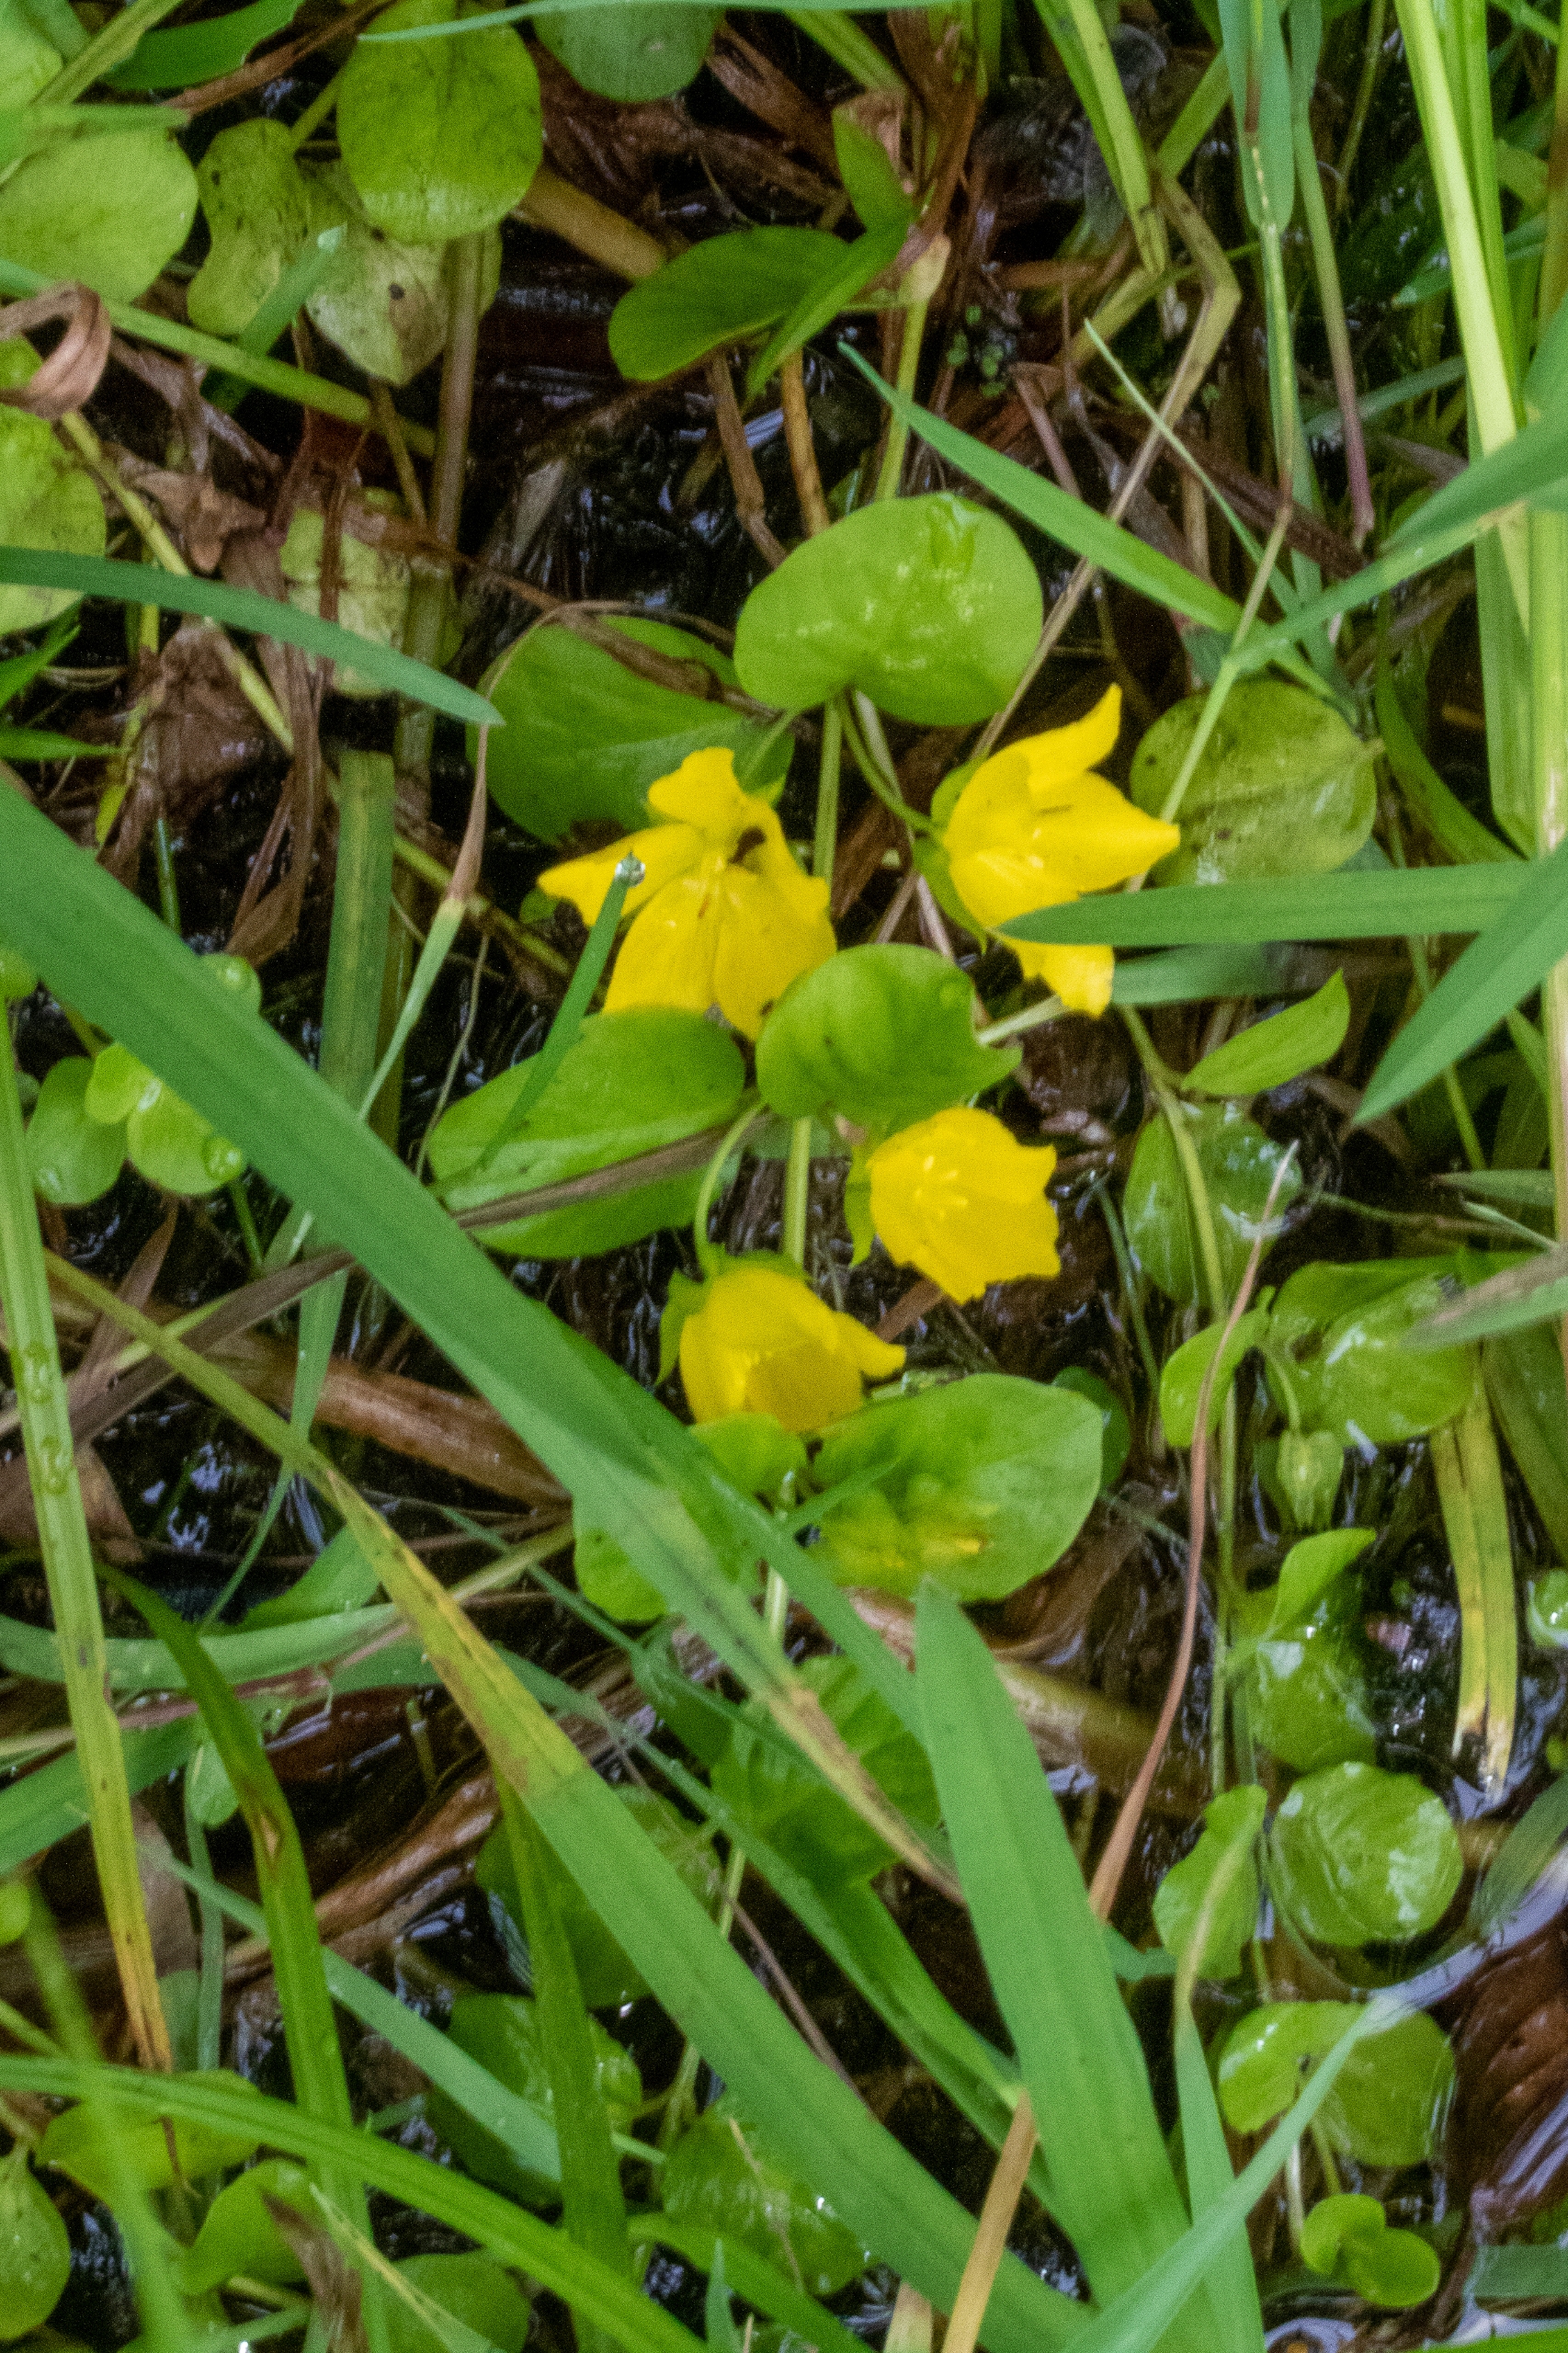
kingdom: Plantae
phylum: Tracheophyta
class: Magnoliopsida
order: Ericales
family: Primulaceae
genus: Lysimachia
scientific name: Lysimachia nummularia
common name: Pengebladet fredløs
